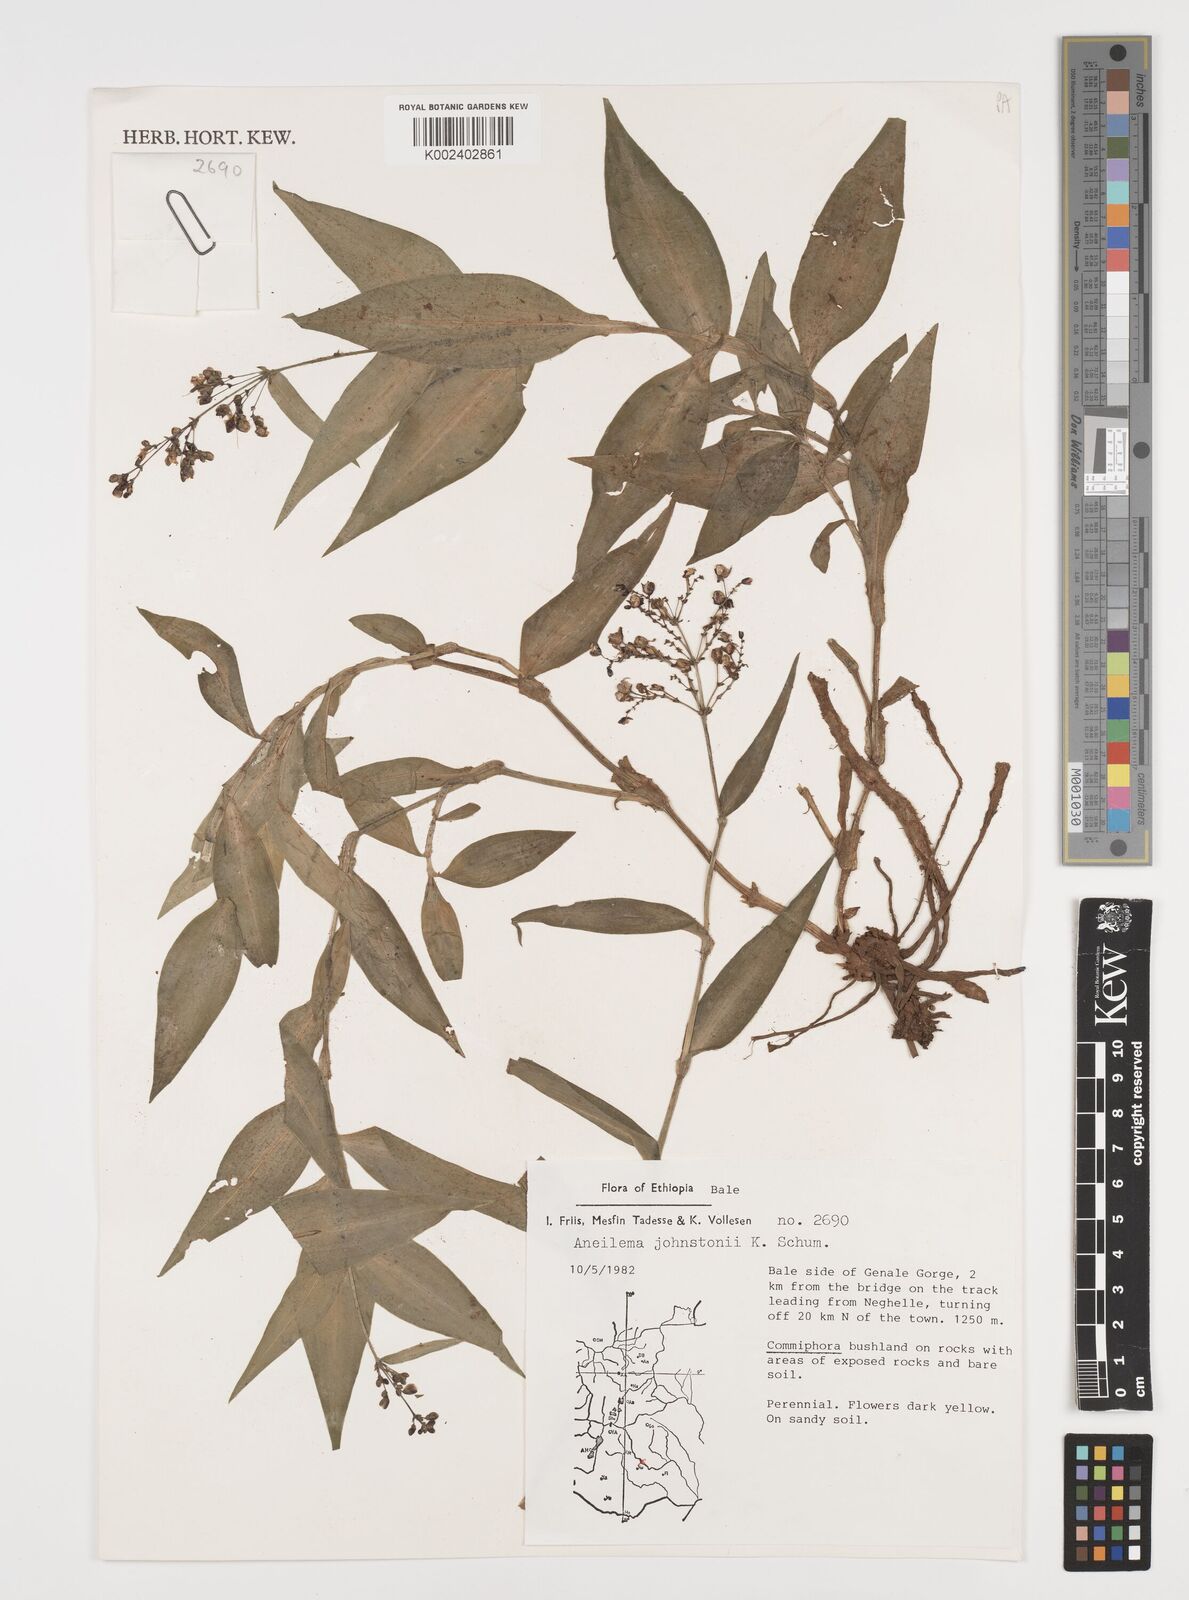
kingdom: Plantae
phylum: Tracheophyta
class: Liliopsida
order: Commelinales
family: Commelinaceae
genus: Aneilema
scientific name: Aneilema johnstonii
